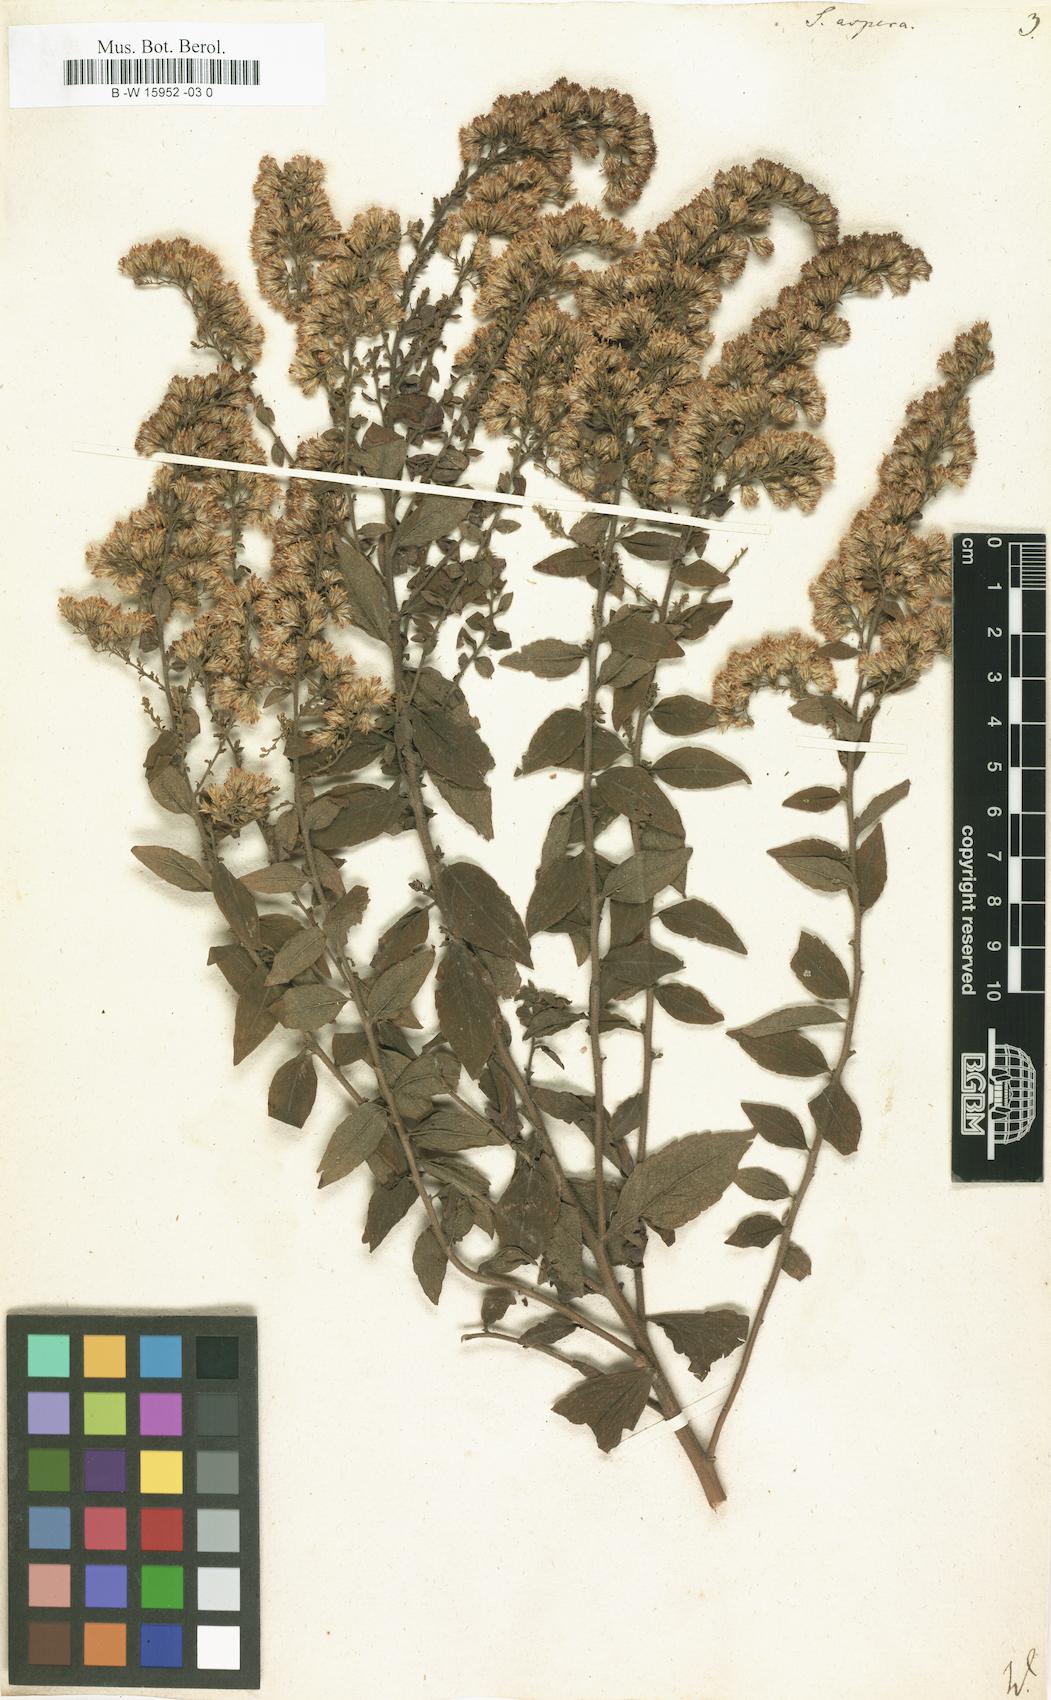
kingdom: Plantae
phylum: Tracheophyta
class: Magnoliopsida
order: Asterales
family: Asteraceae
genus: Solidago
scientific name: Solidago rugosa
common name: Rough-stemmed goldenrod
